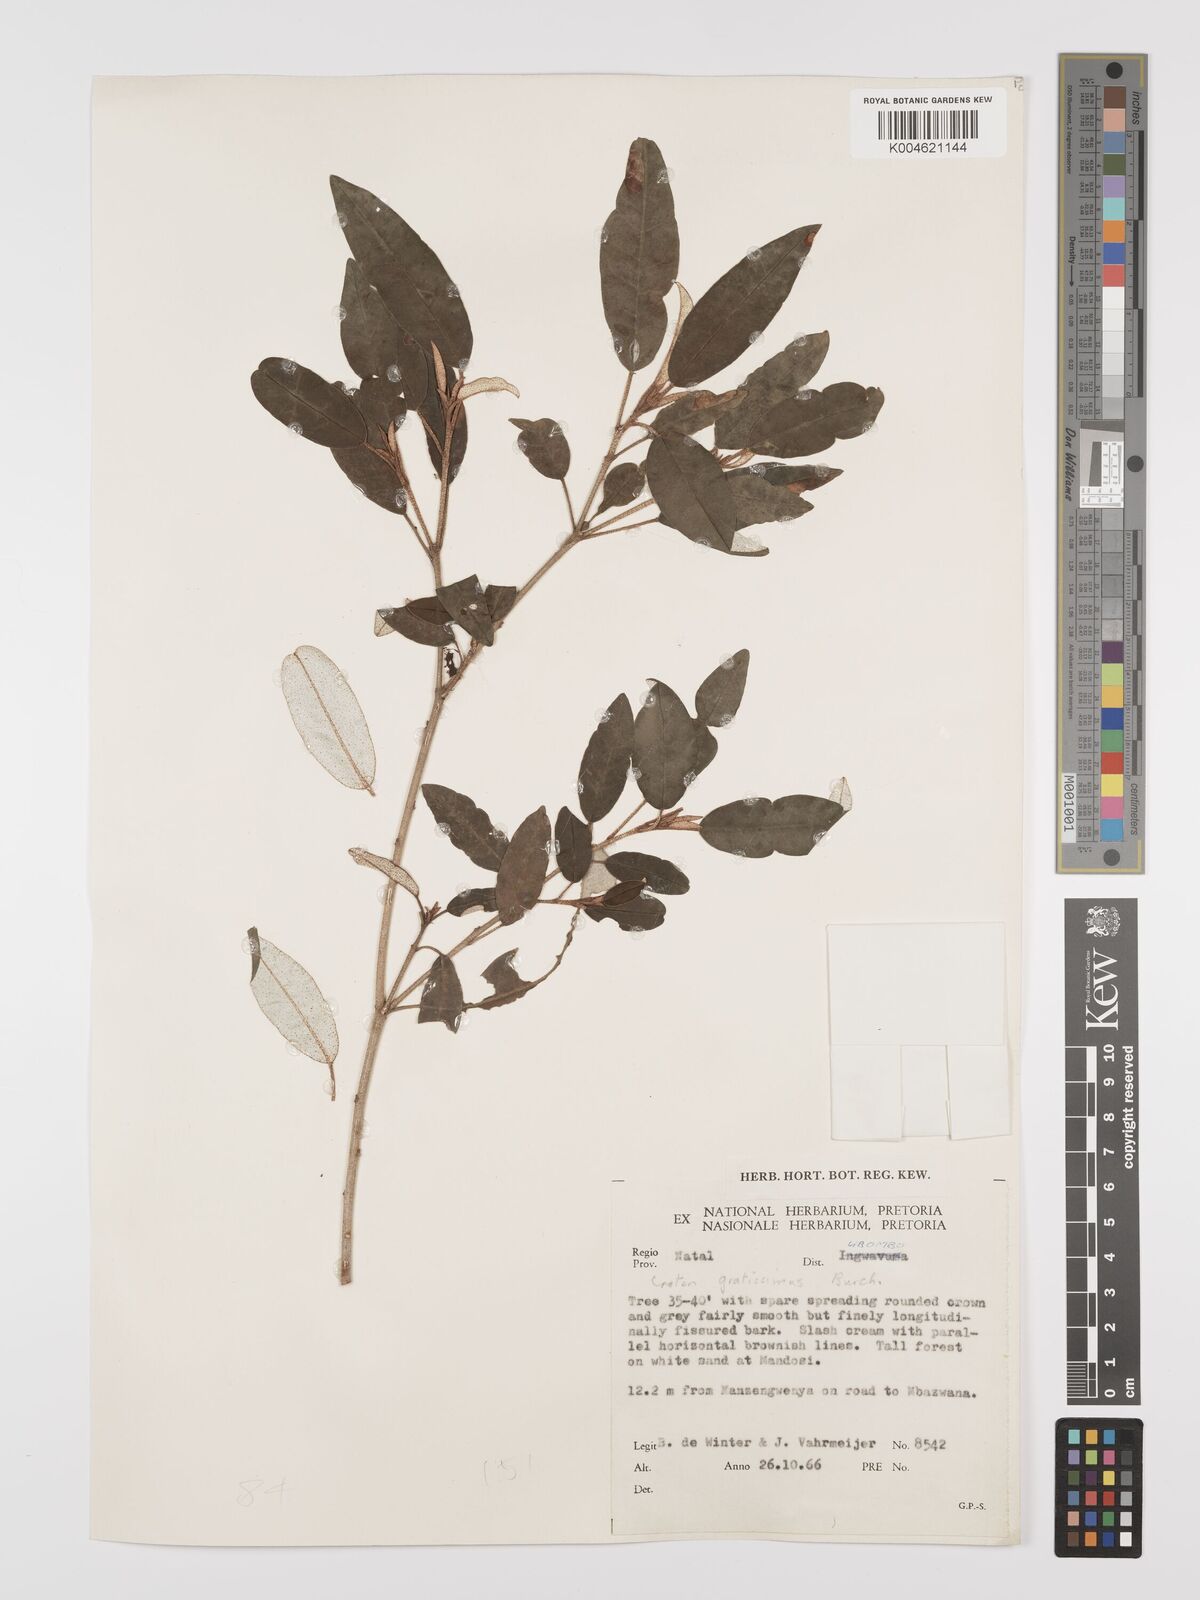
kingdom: Plantae
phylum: Tracheophyta
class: Magnoliopsida
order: Malpighiales
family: Euphorbiaceae
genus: Croton
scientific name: Croton gratissimus
